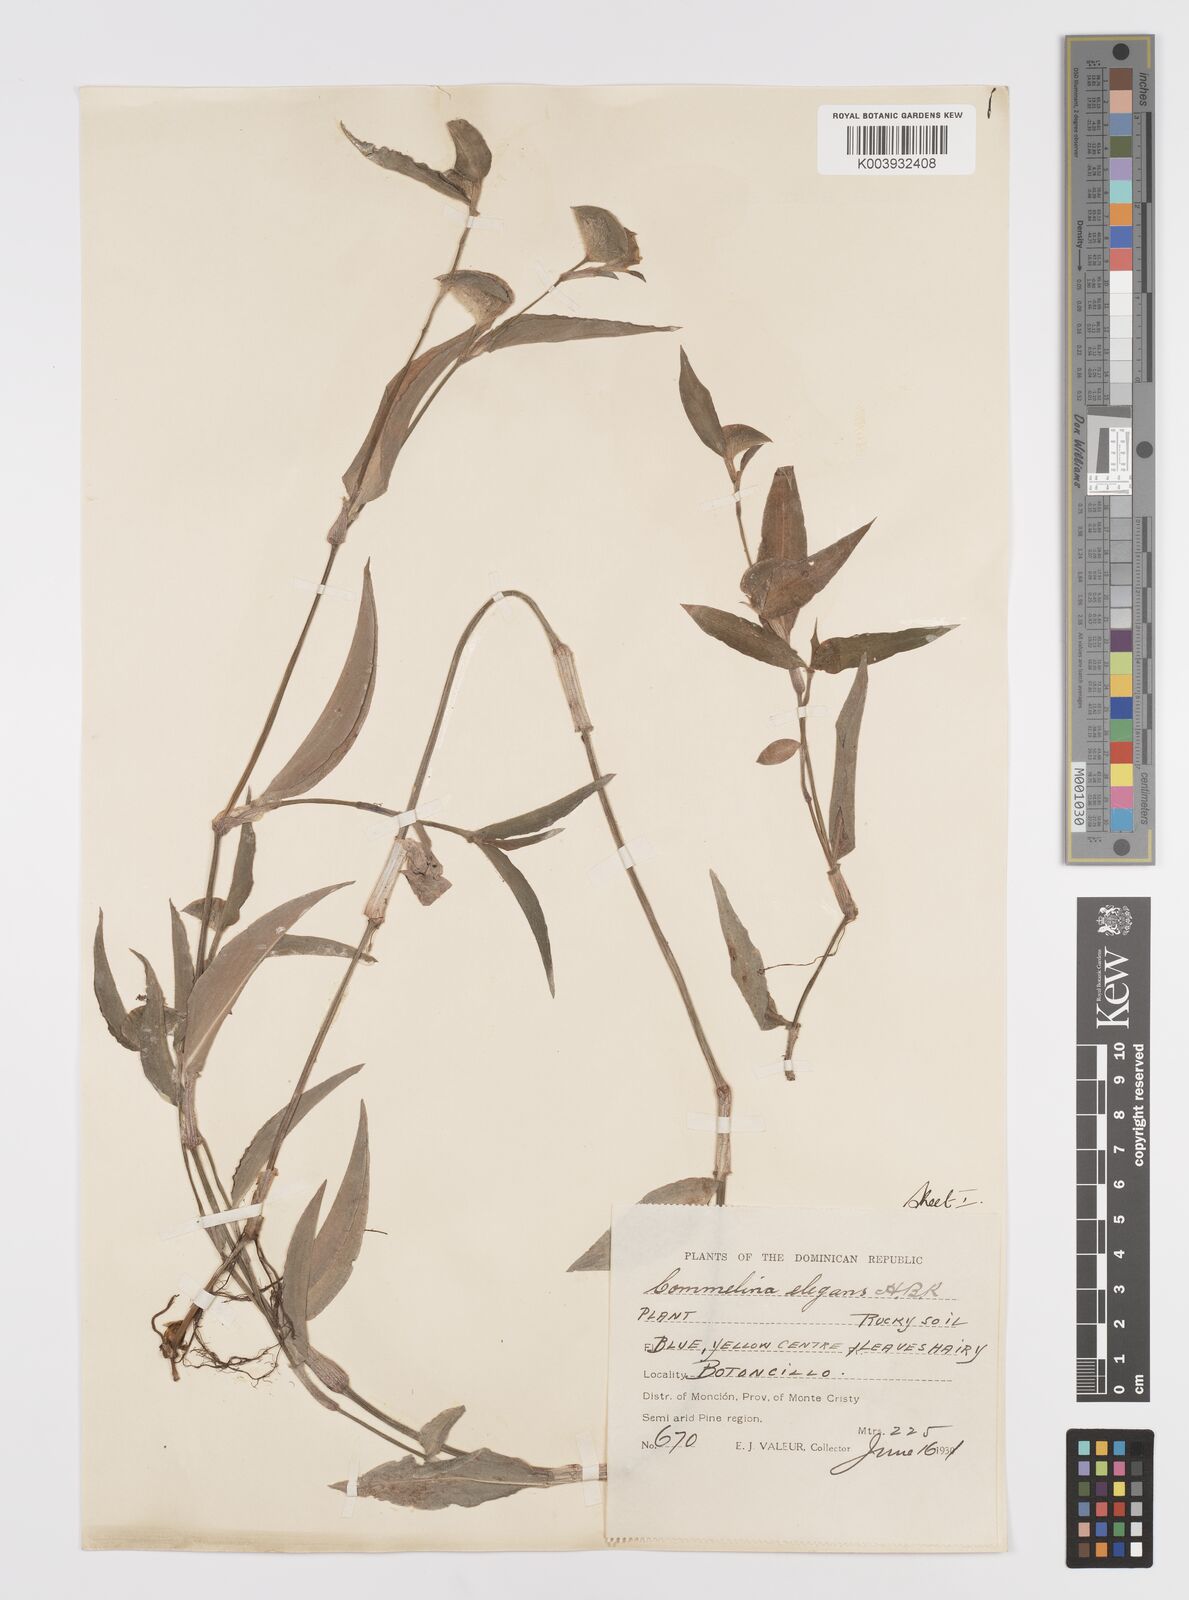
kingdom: Plantae
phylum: Tracheophyta
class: Liliopsida
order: Commelinales
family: Commelinaceae
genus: Commelina
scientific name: Commelina erecta
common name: Blousel blommetjie
